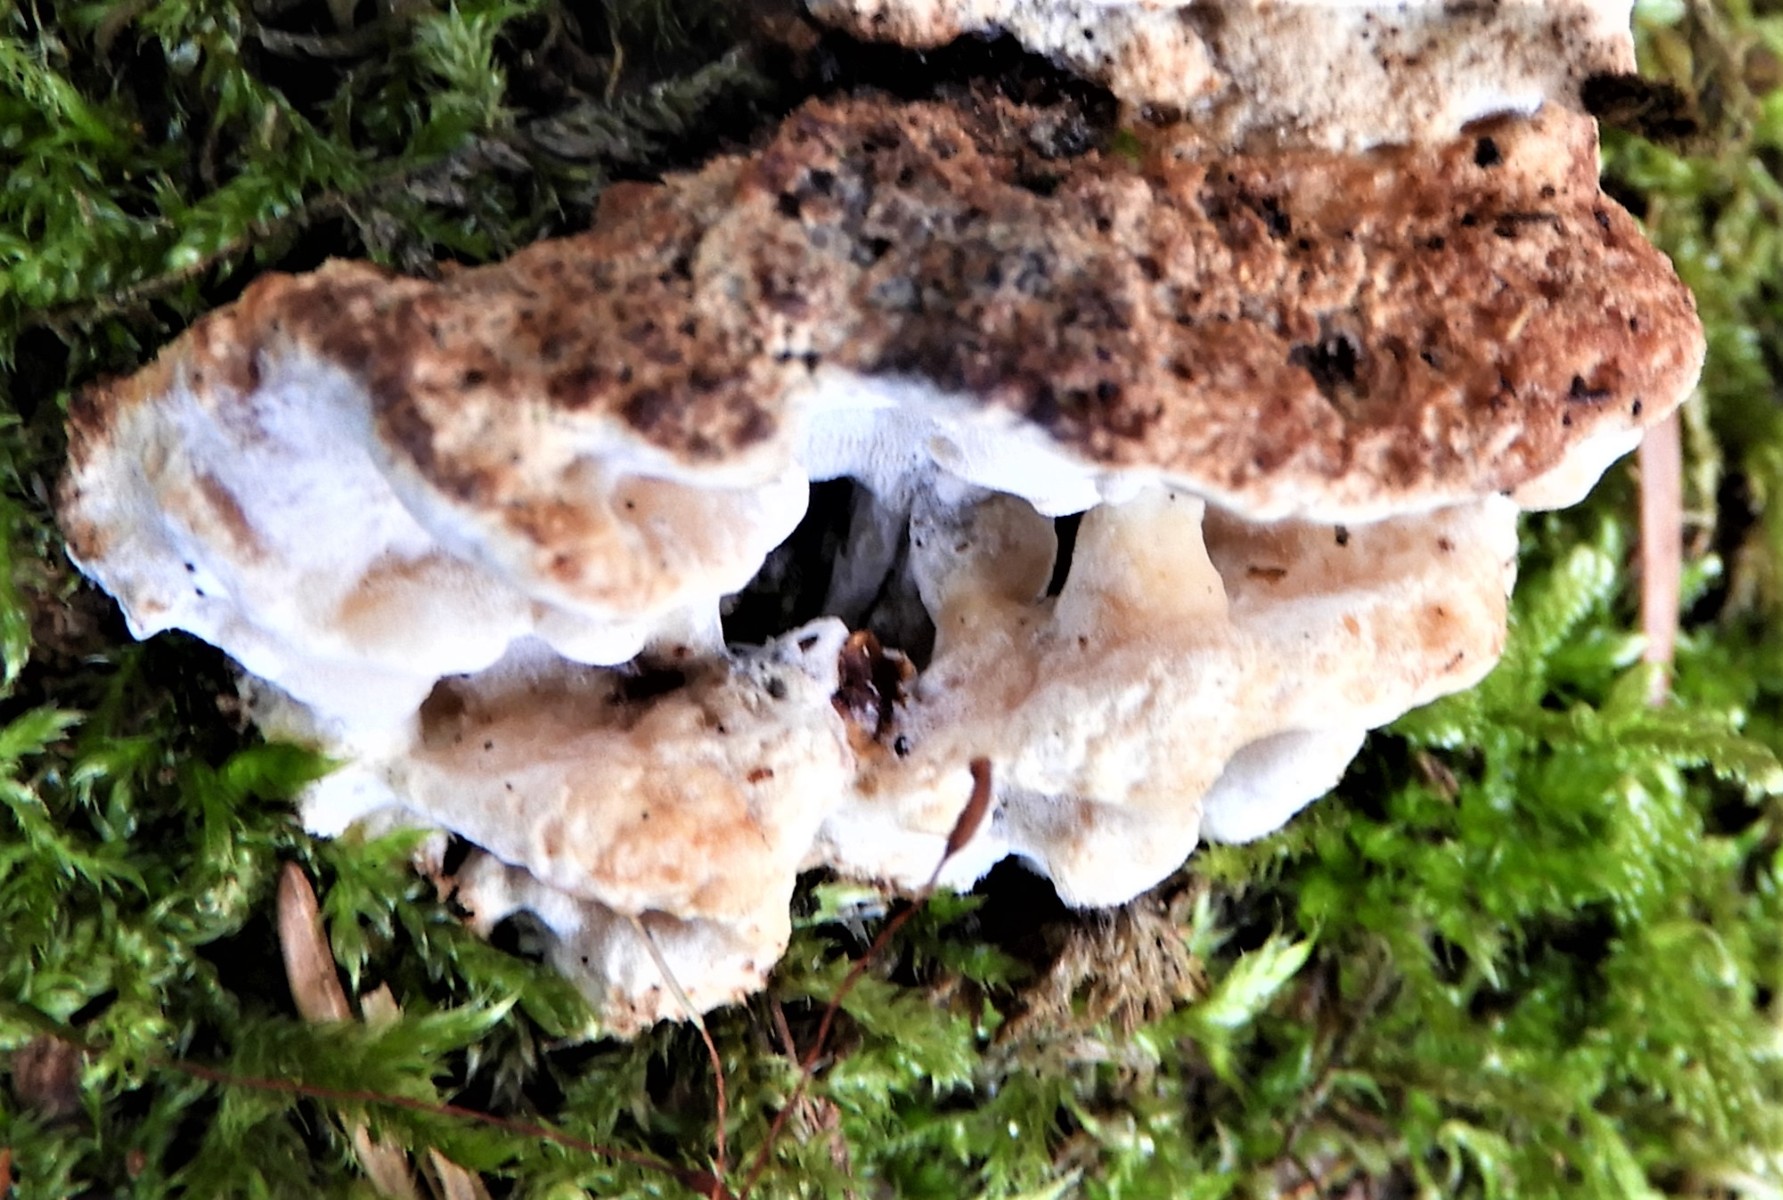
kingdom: Fungi
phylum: Basidiomycota
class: Agaricomycetes
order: Polyporales
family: Incrustoporiaceae
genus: Skeletocutis
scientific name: Skeletocutis nemoralis
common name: stor krystalporesvamp
